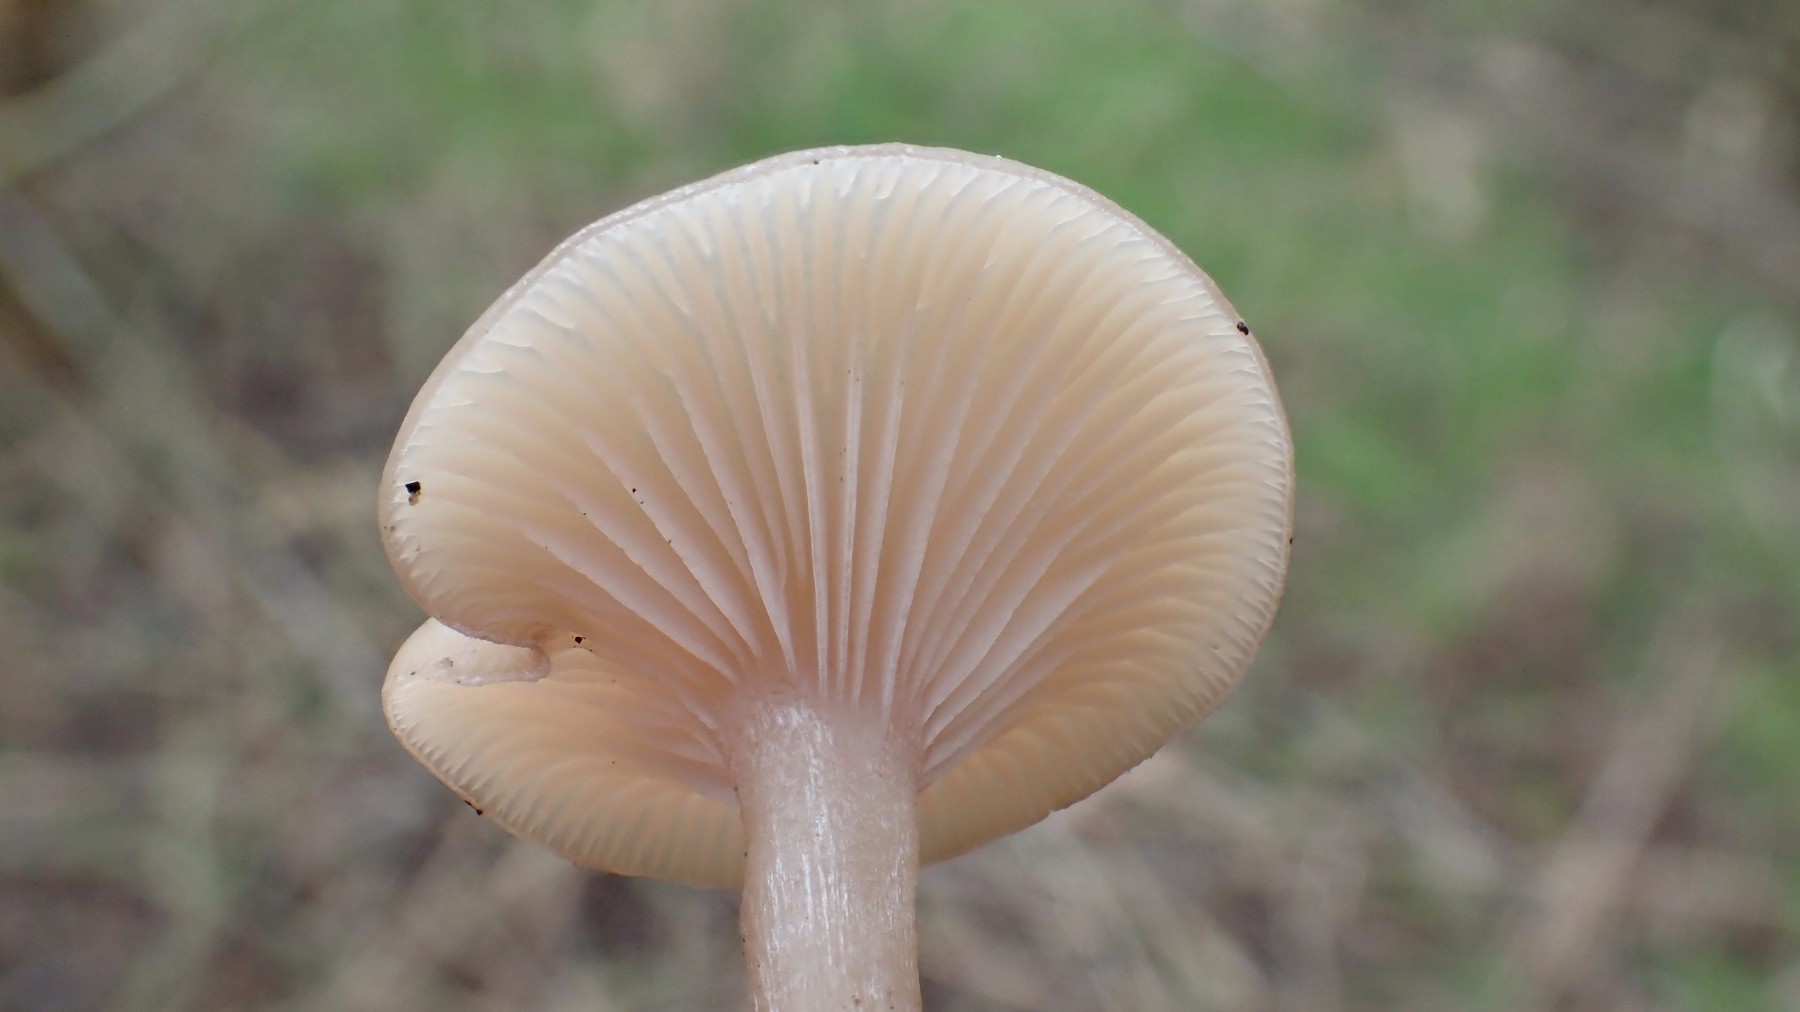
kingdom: Fungi
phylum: Basidiomycota
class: Agaricomycetes
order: Agaricales
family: Tricholomataceae
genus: Clitocybe
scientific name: Clitocybe fragrans
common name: vellugtende tragthat
